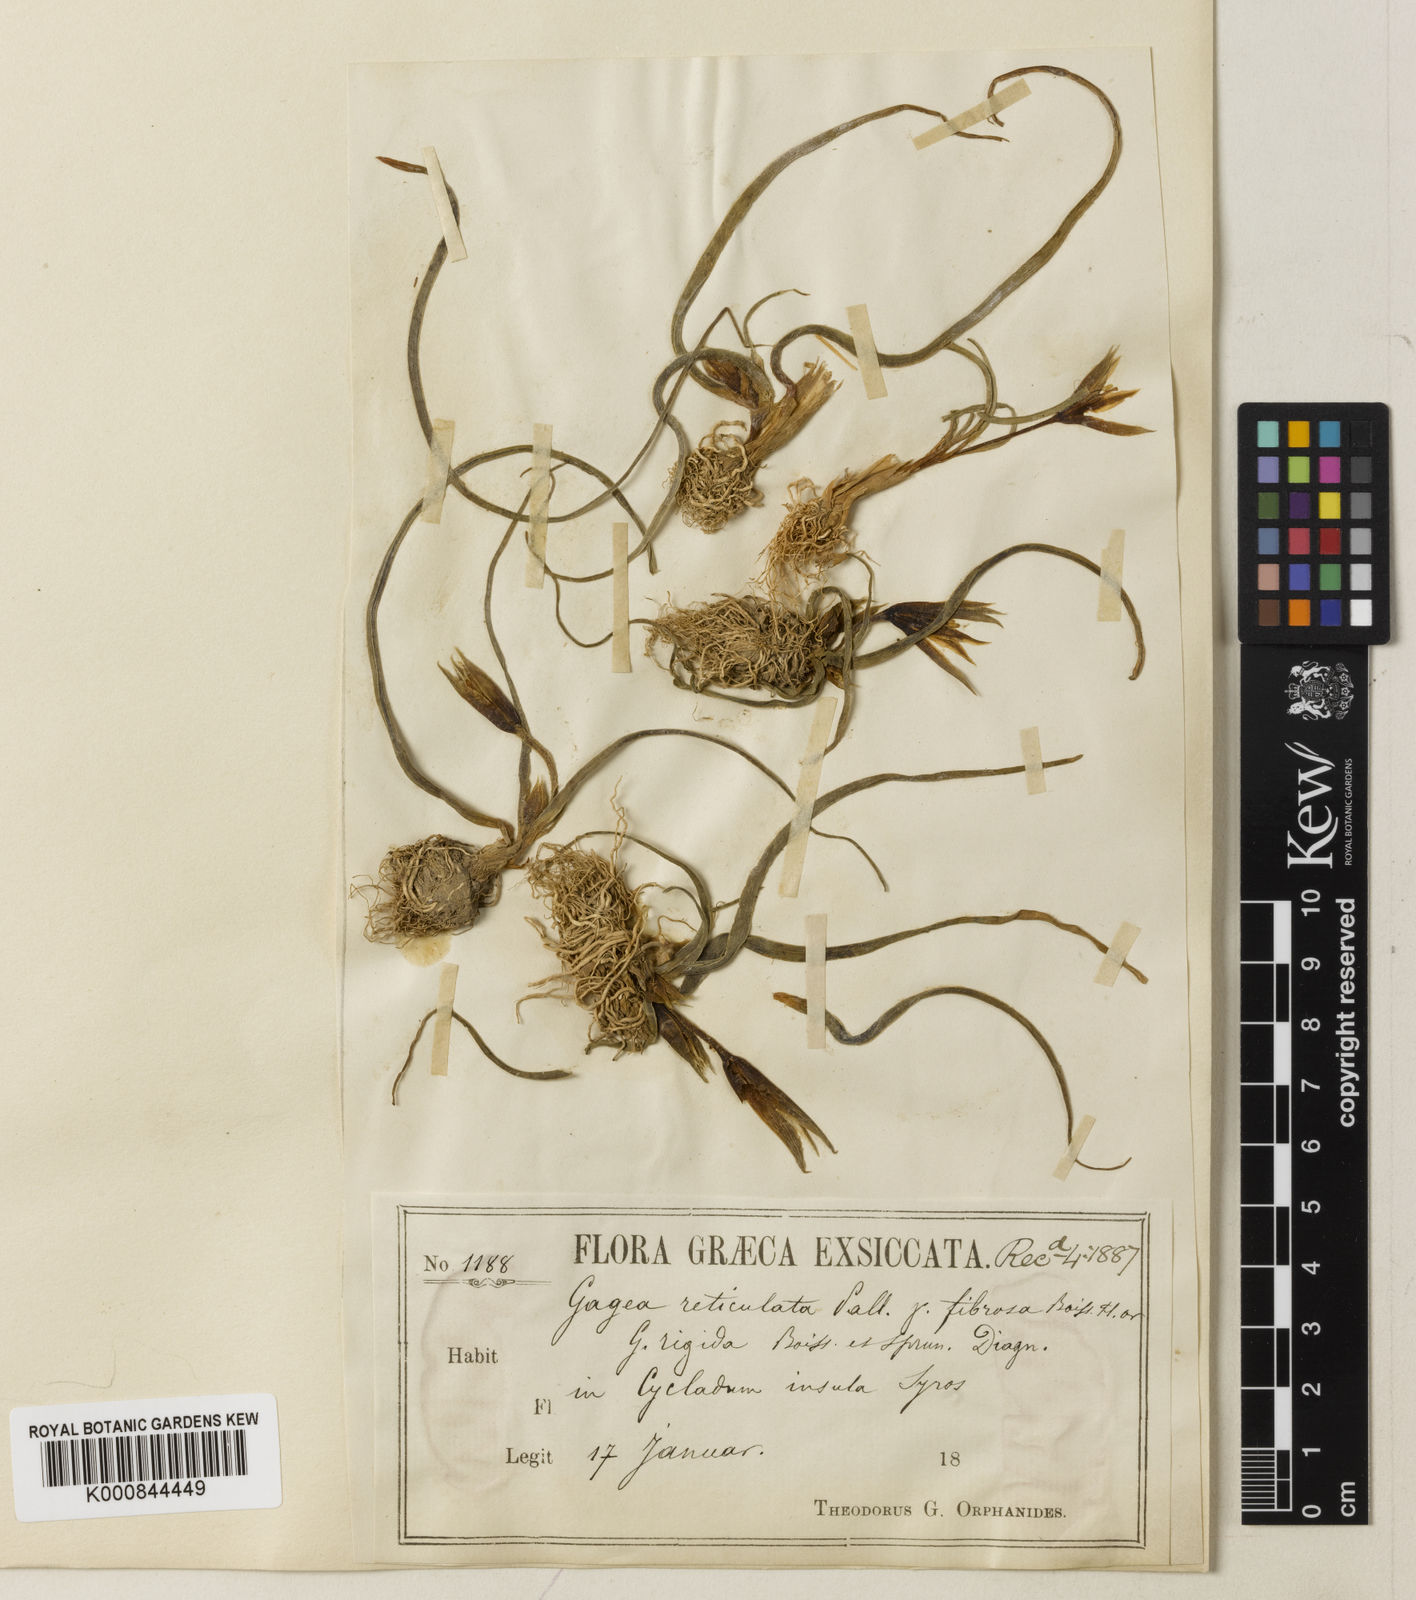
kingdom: Plantae
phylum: Tracheophyta
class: Liliopsida
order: Liliales
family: Liliaceae
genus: Gagea
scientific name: Gagea reticulata
